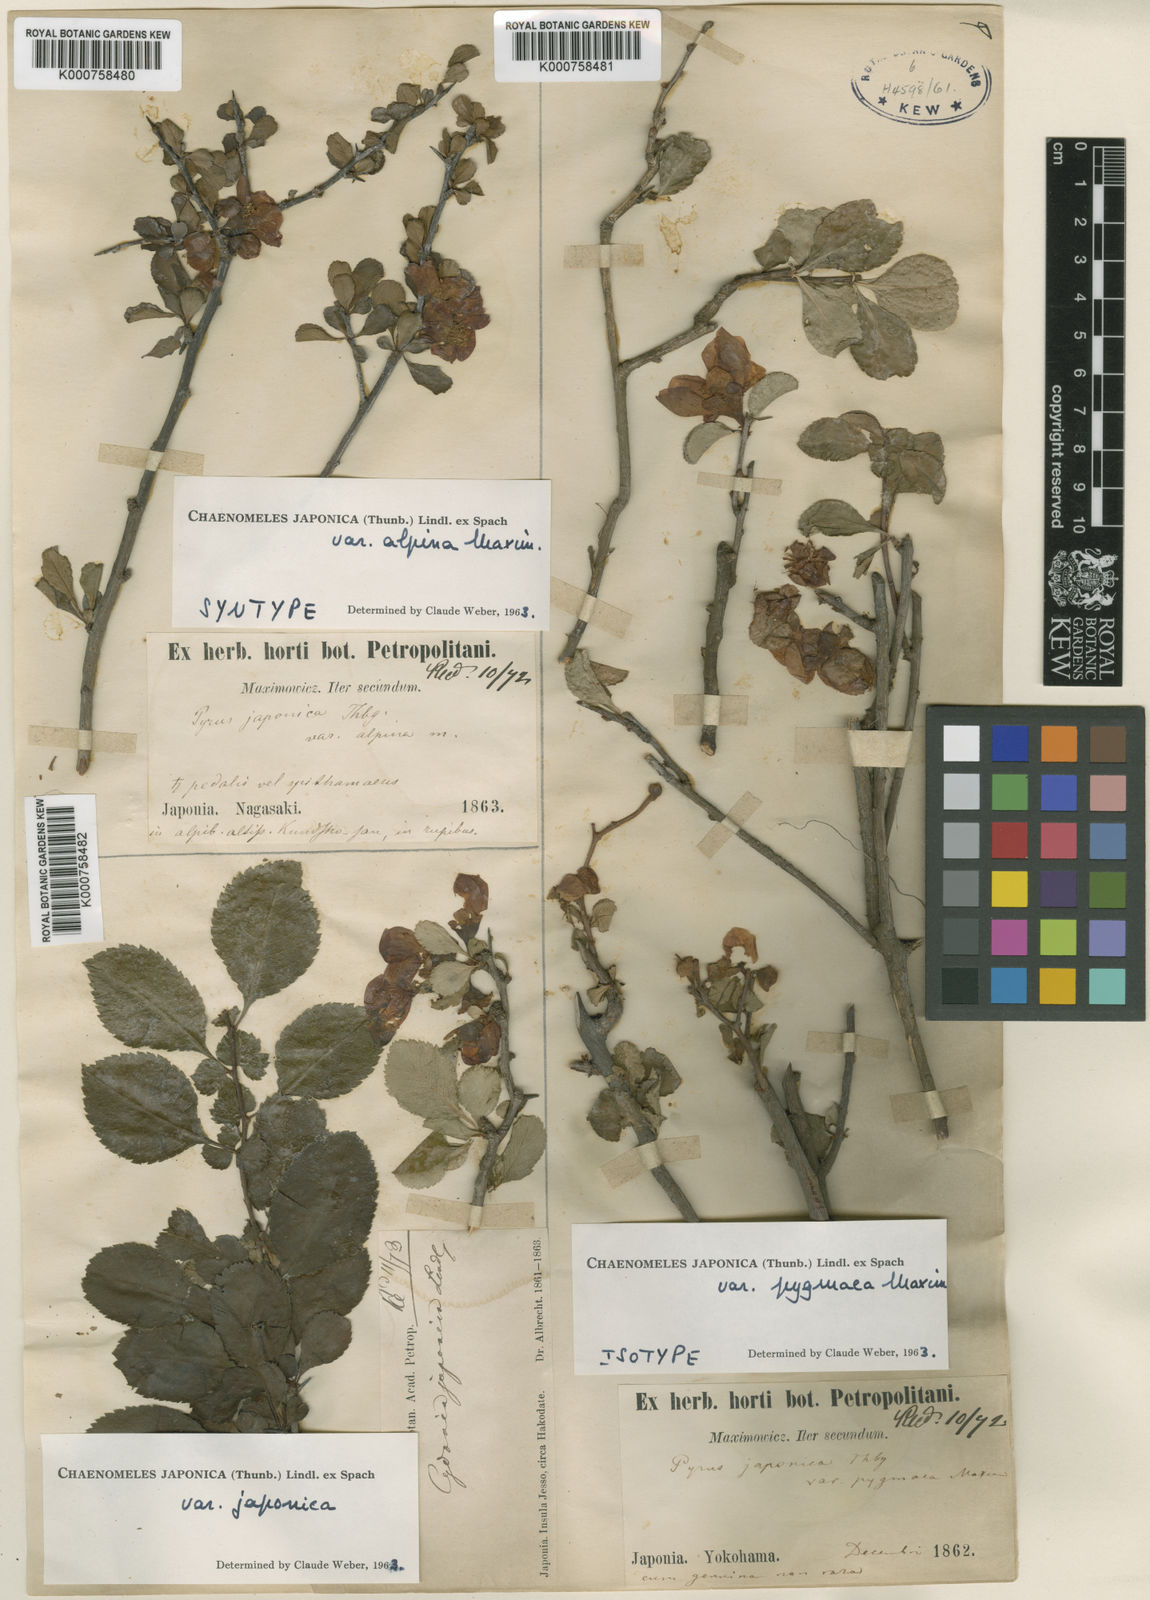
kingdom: Plantae
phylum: Tracheophyta
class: Magnoliopsida
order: Rosales
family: Rosaceae
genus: Chaenomeles
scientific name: Chaenomeles japonica
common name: Japanese quince
